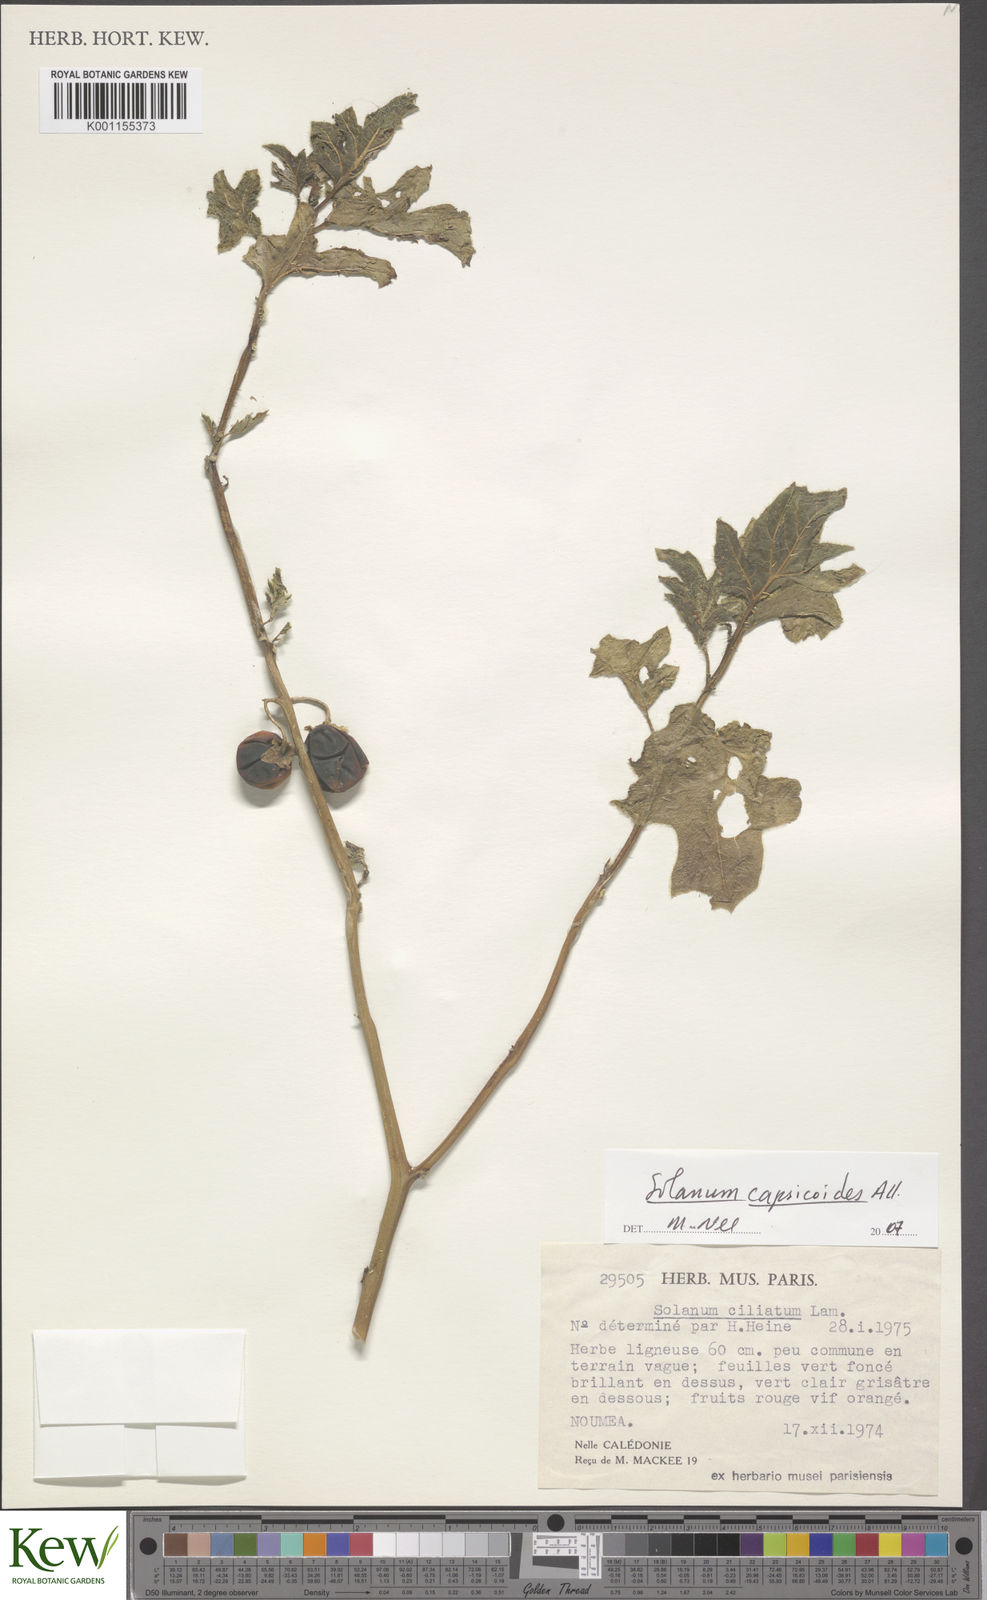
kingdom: Plantae
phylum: Tracheophyta
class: Magnoliopsida
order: Solanales
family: Solanaceae
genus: Solanum
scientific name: Solanum capsicoides
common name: Cockroach berry
